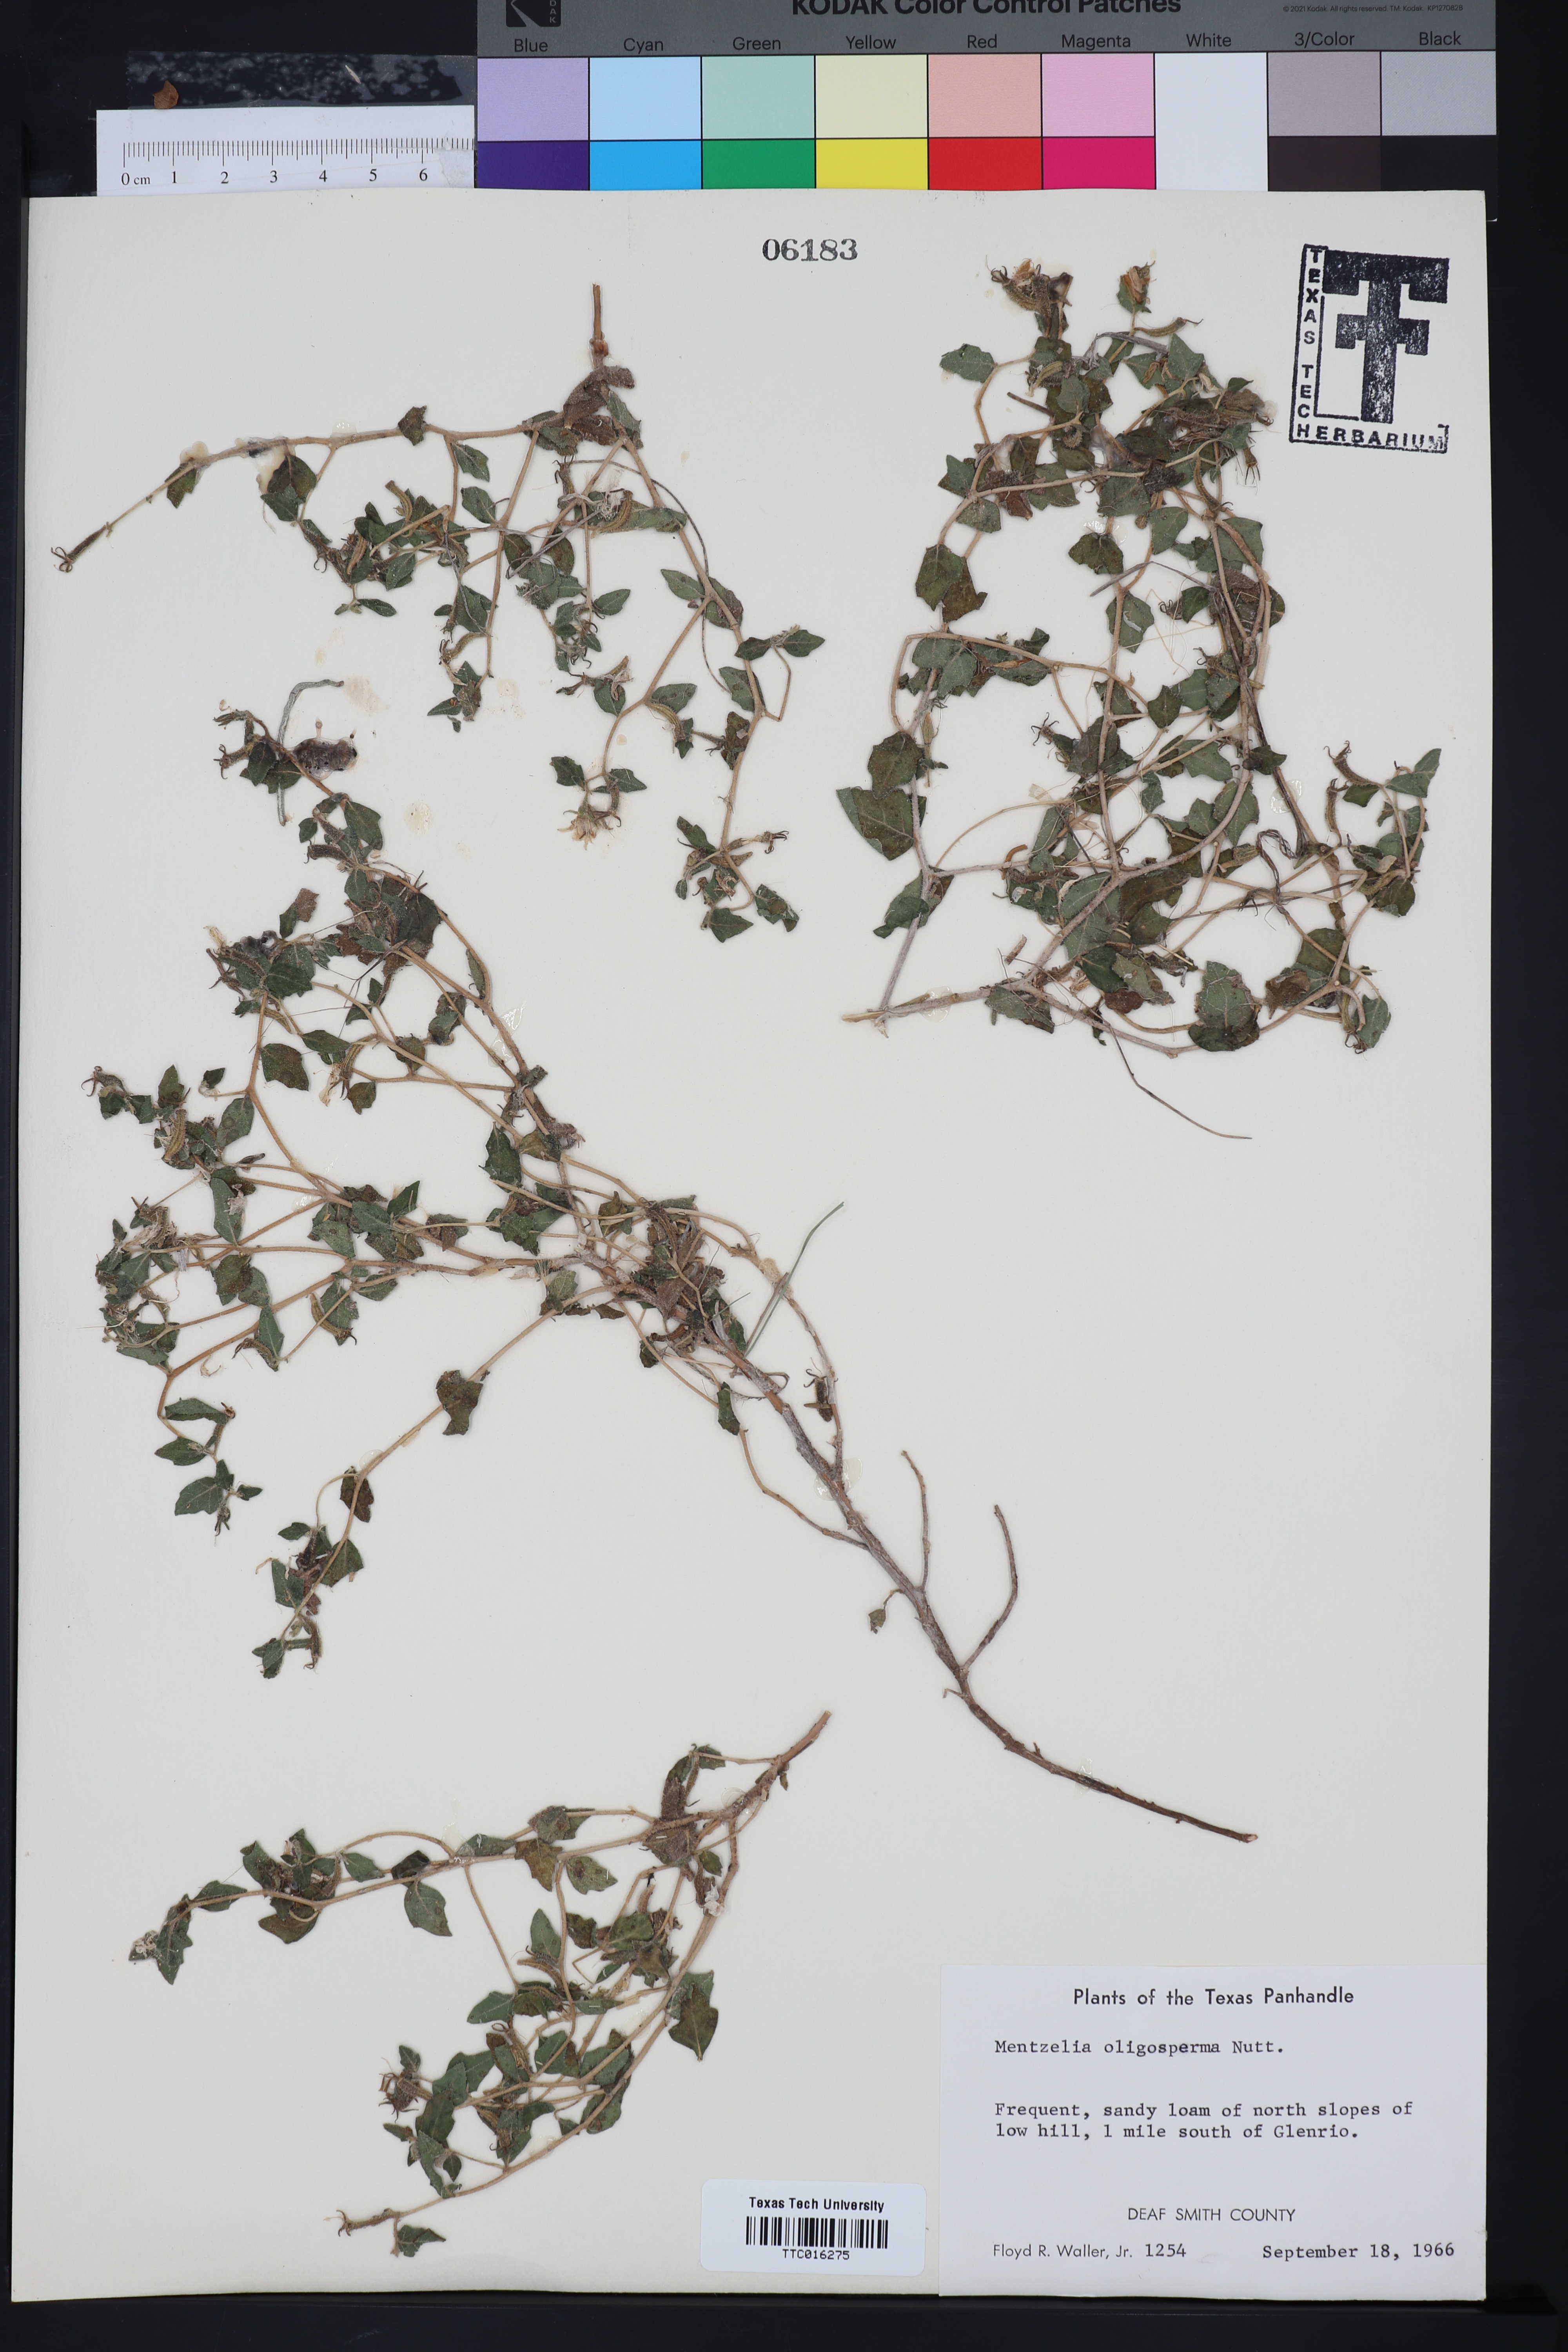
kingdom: Plantae
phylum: Tracheophyta
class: Magnoliopsida
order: Cornales
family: Loasaceae
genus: Mentzelia
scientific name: Mentzelia oligosperma
